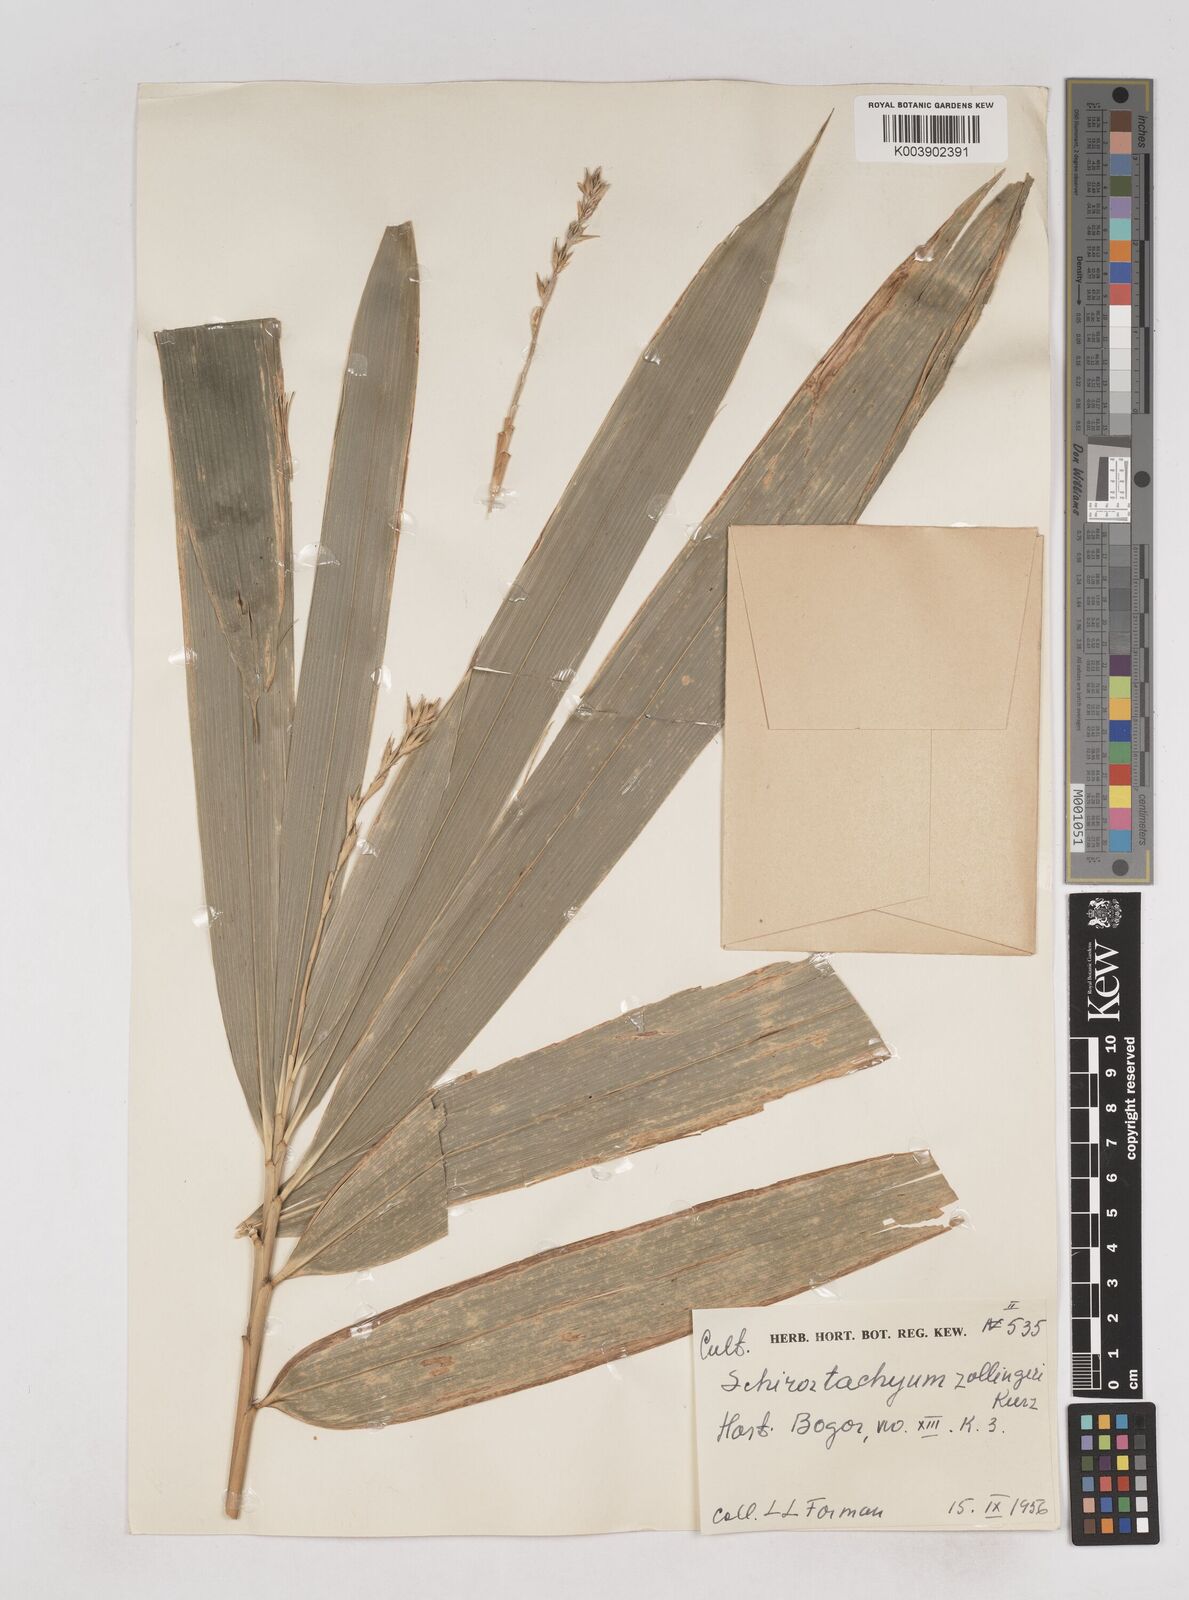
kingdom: Plantae
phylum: Tracheophyta
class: Liliopsida
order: Poales
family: Poaceae
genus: Schizostachyum
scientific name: Schizostachyum zollingeri
